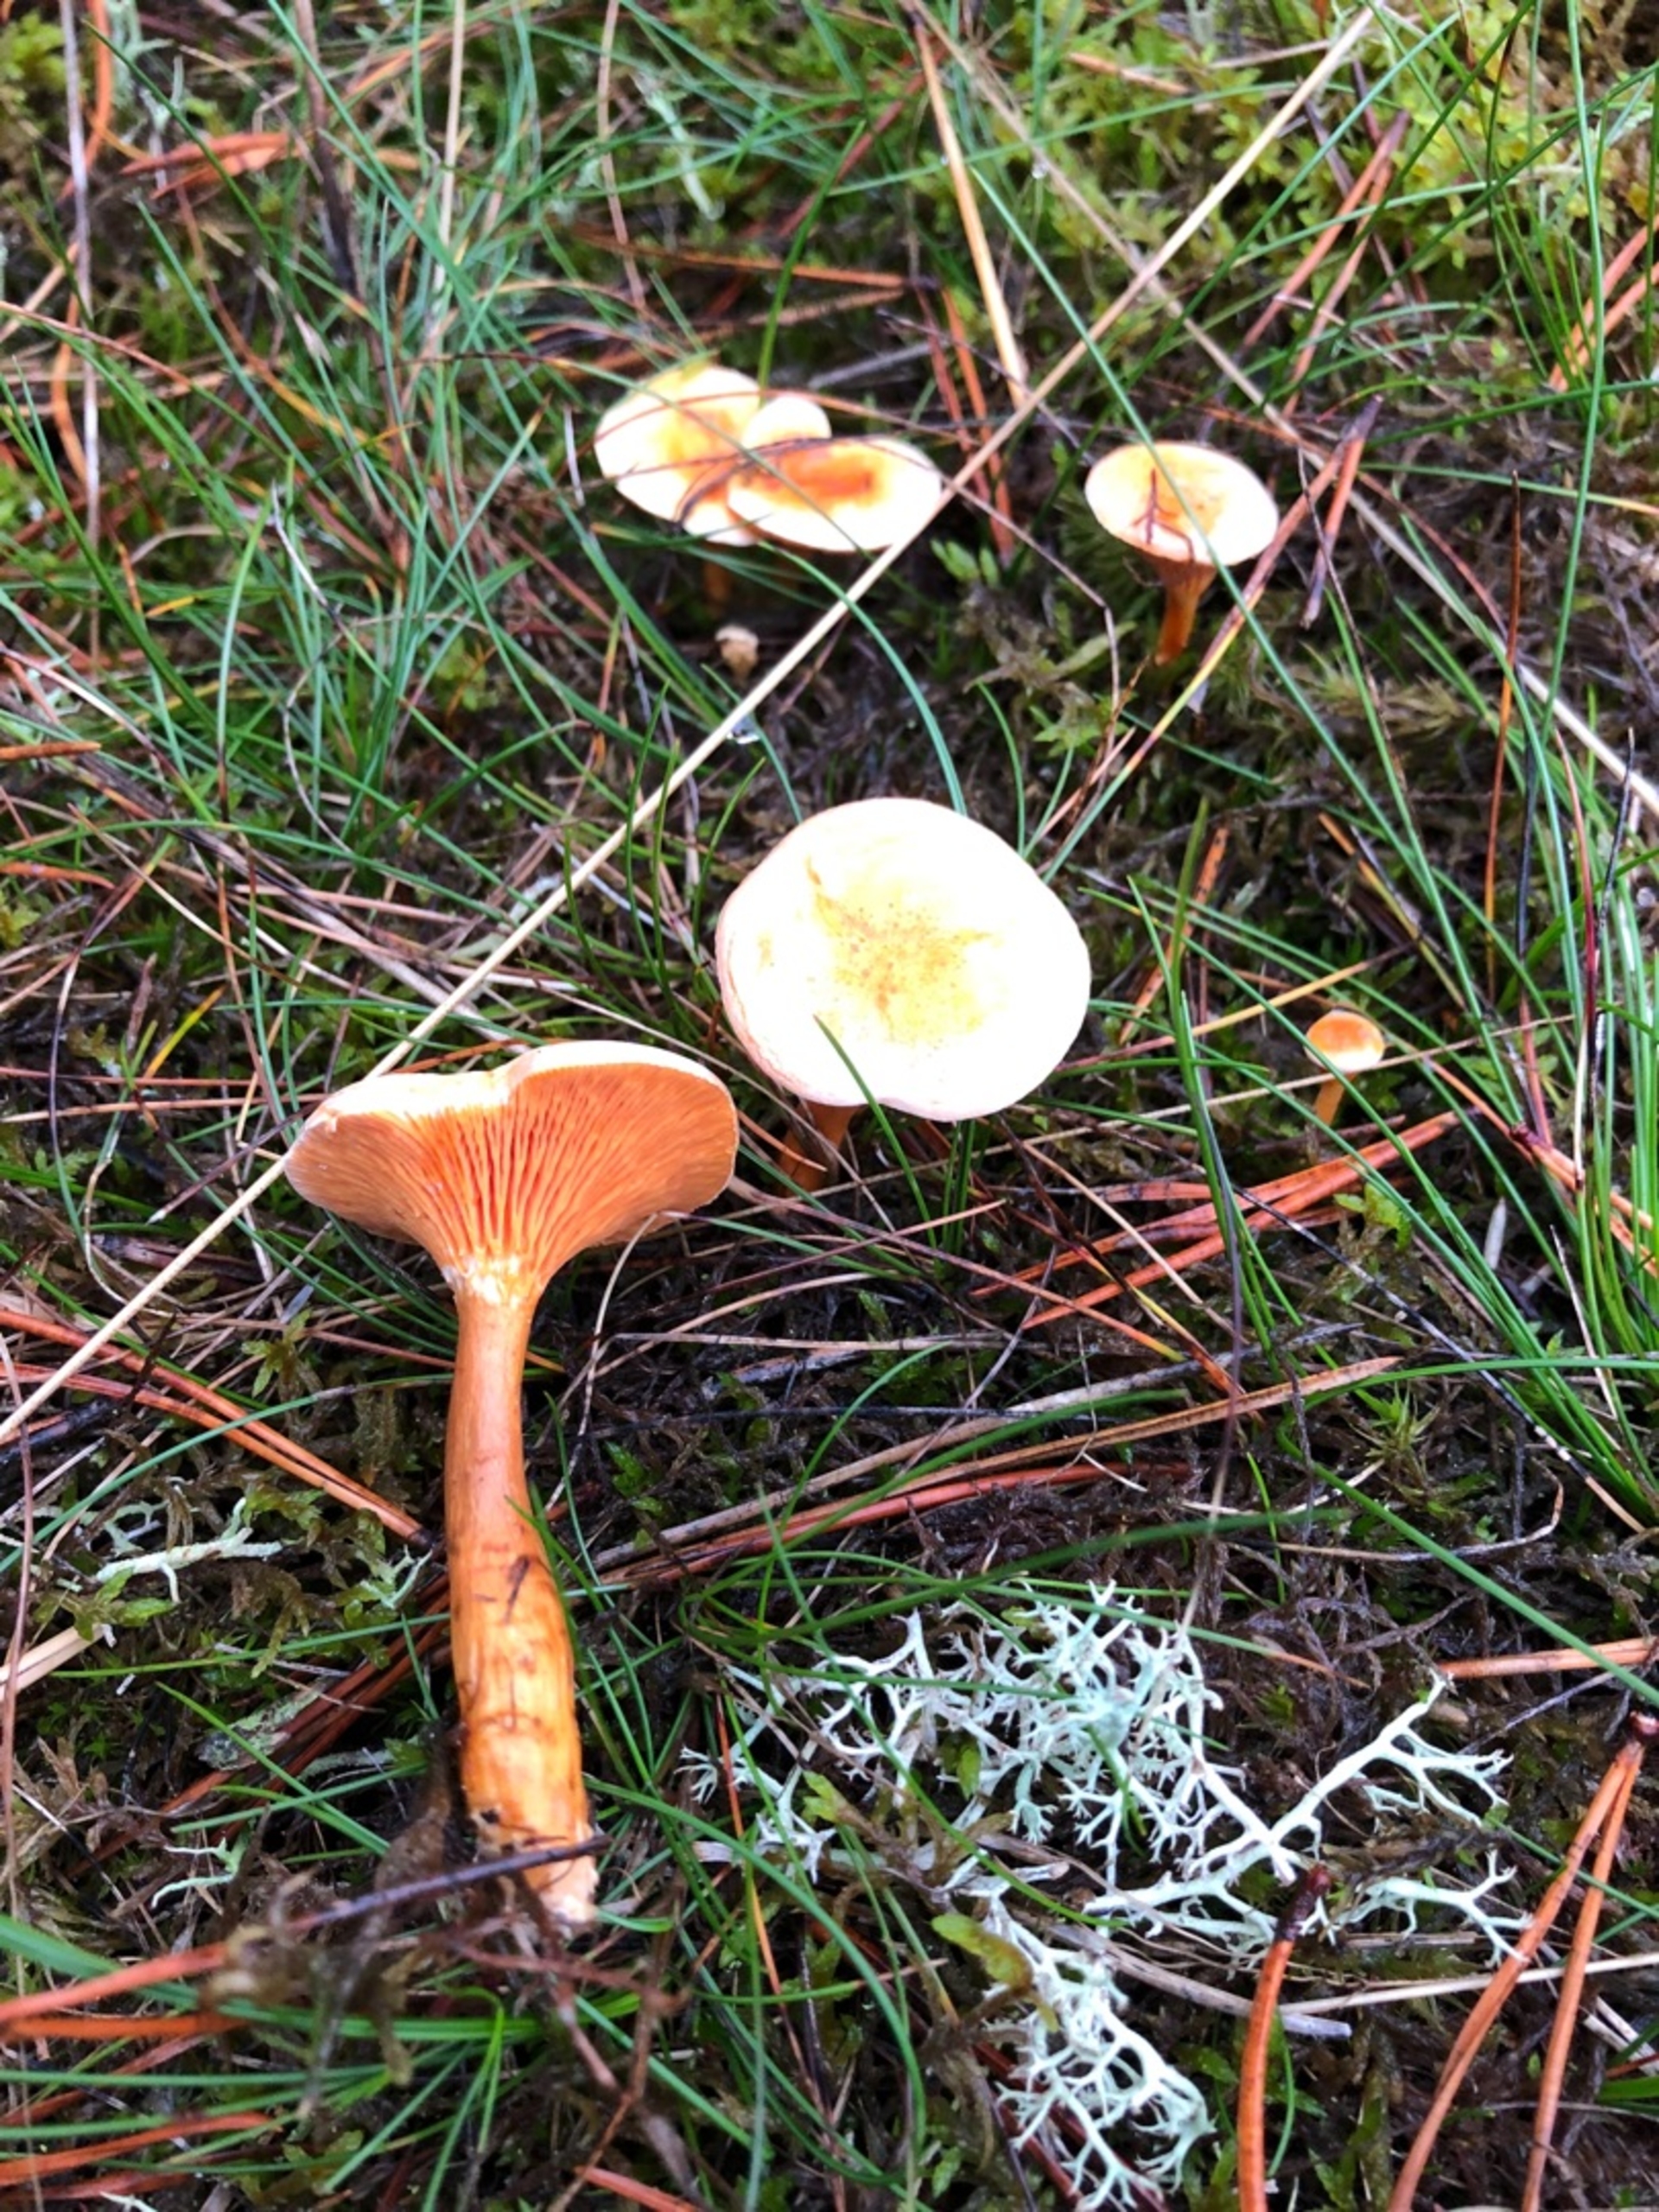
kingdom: Fungi
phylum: Basidiomycota
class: Agaricomycetes
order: Boletales
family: Hygrophoropsidaceae
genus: Hygrophoropsis
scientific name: Hygrophoropsis aurantiaca
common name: Almindelig orangekantarel
